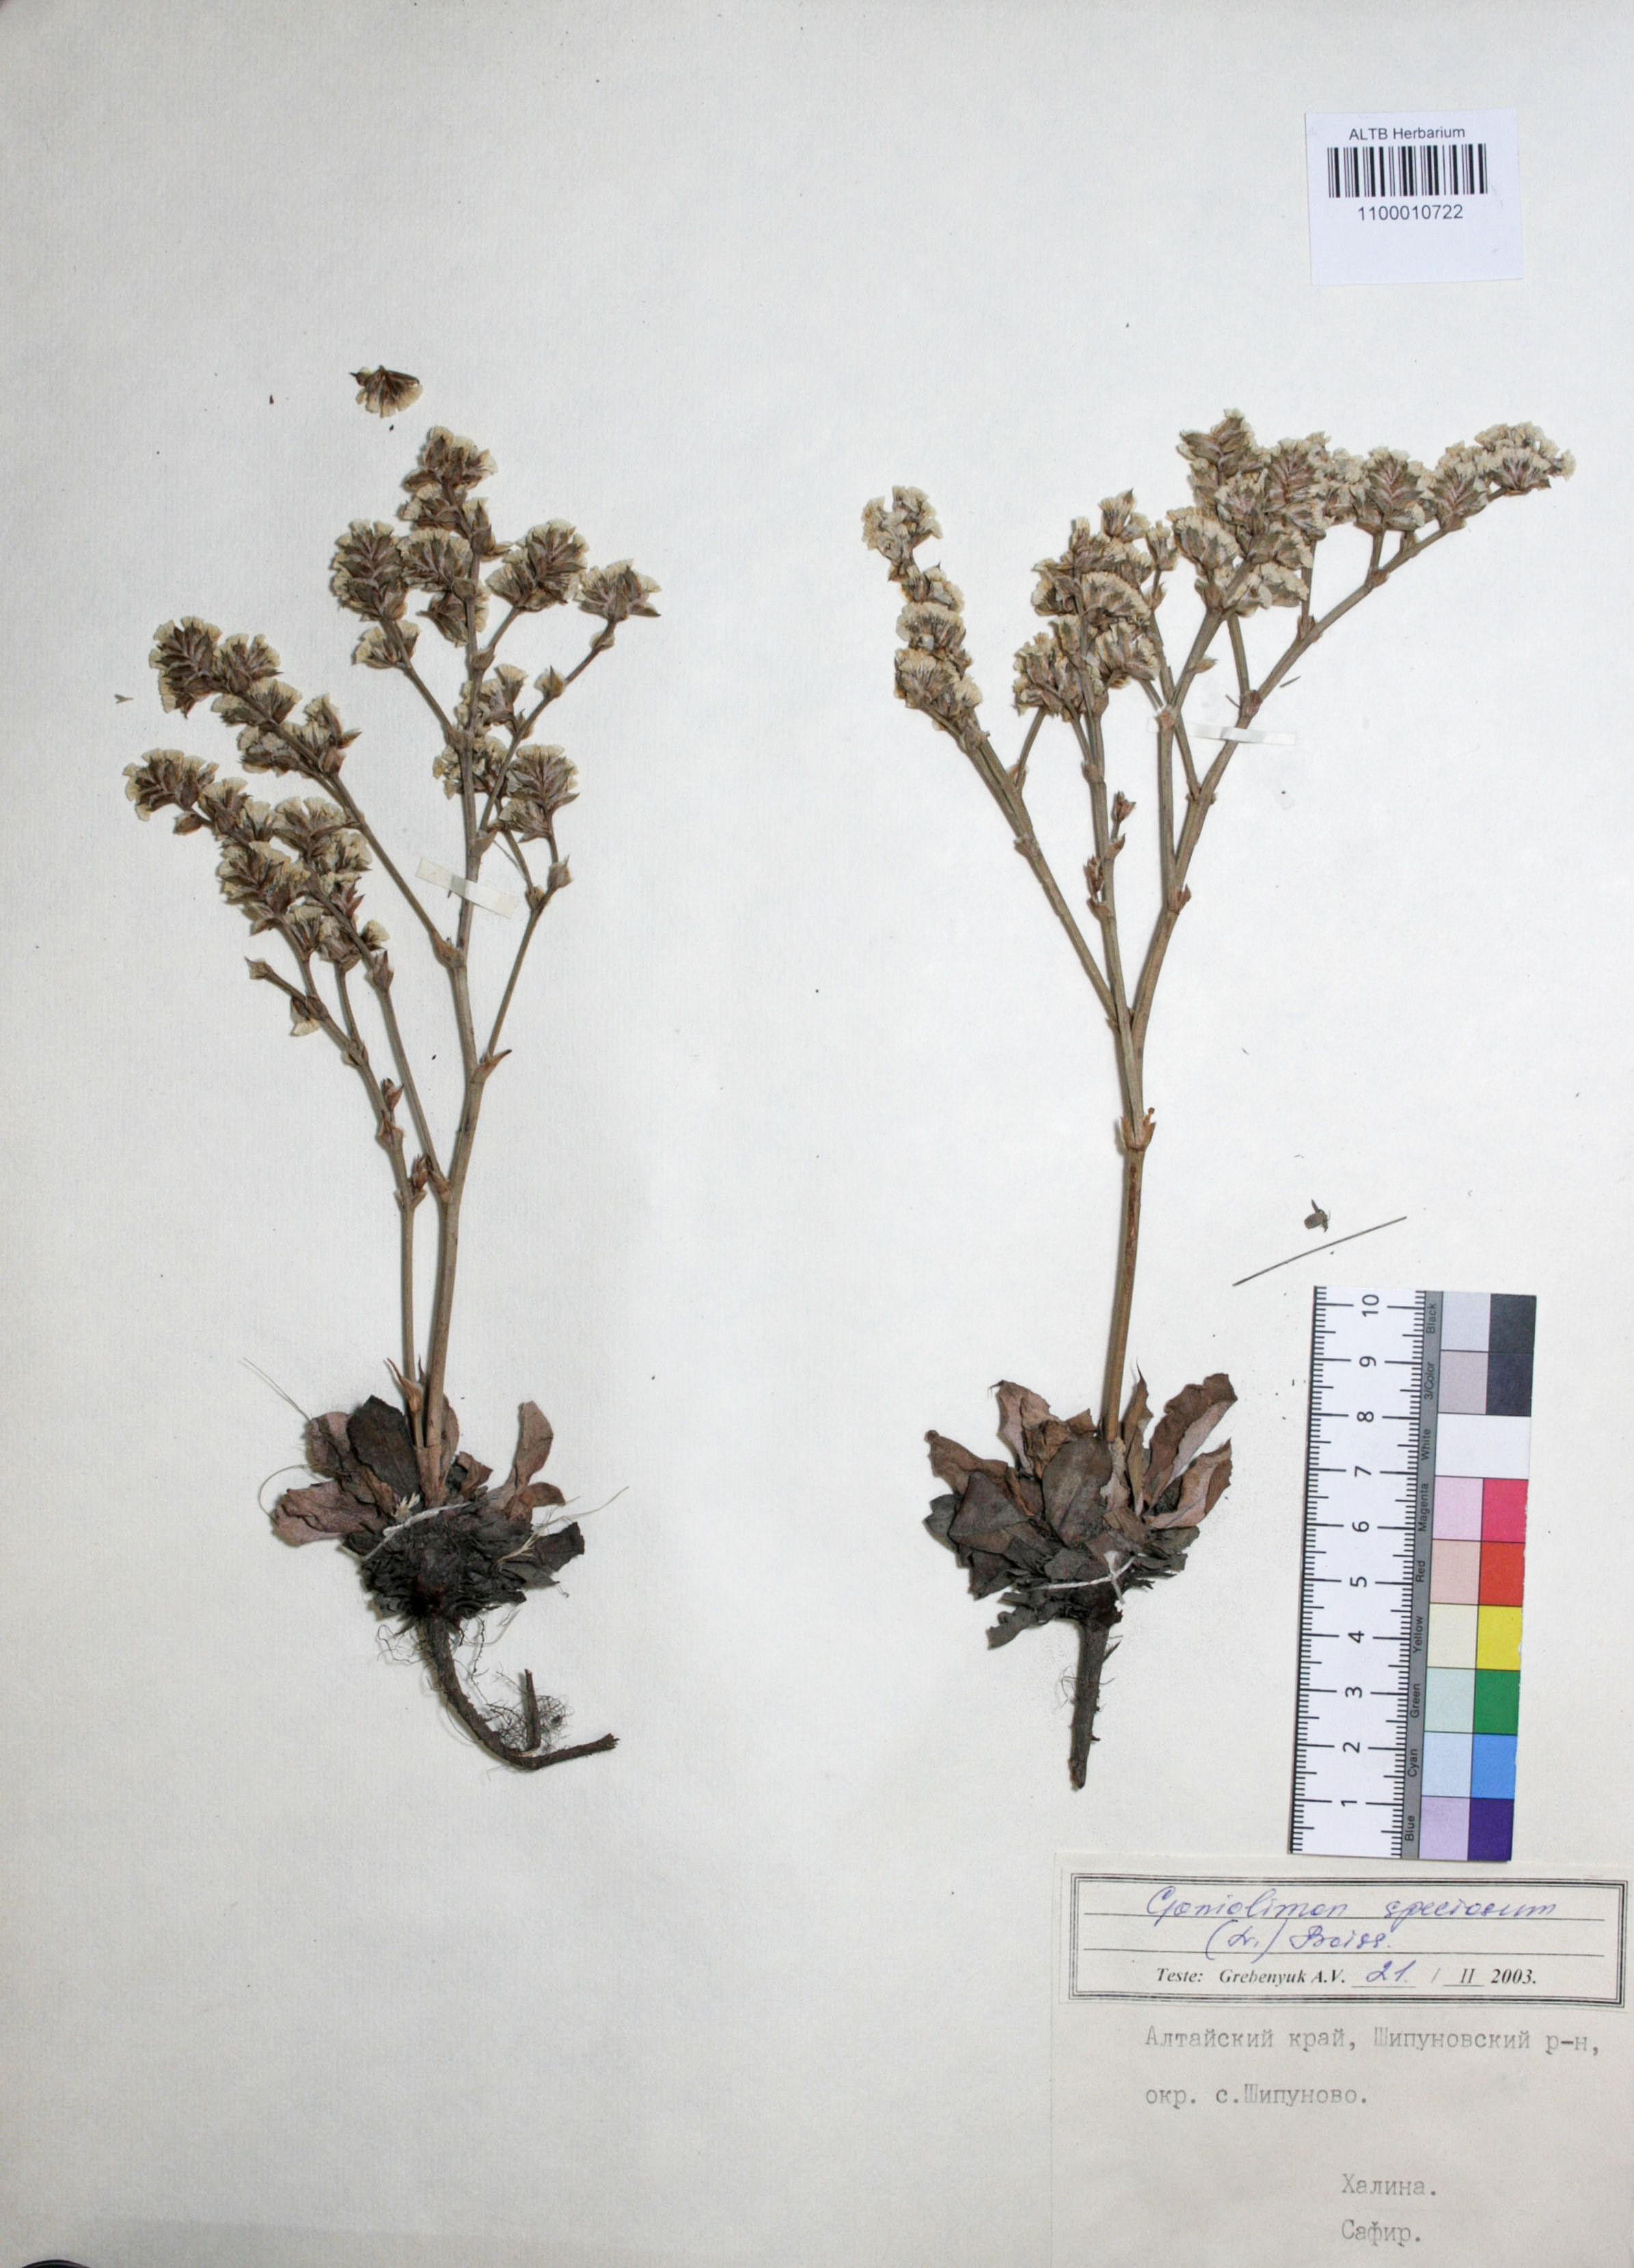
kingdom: Plantae
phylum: Tracheophyta
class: Magnoliopsida
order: Caryophyllales
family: Plumbaginaceae
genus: Goniolimon
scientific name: Goniolimon speciosum
